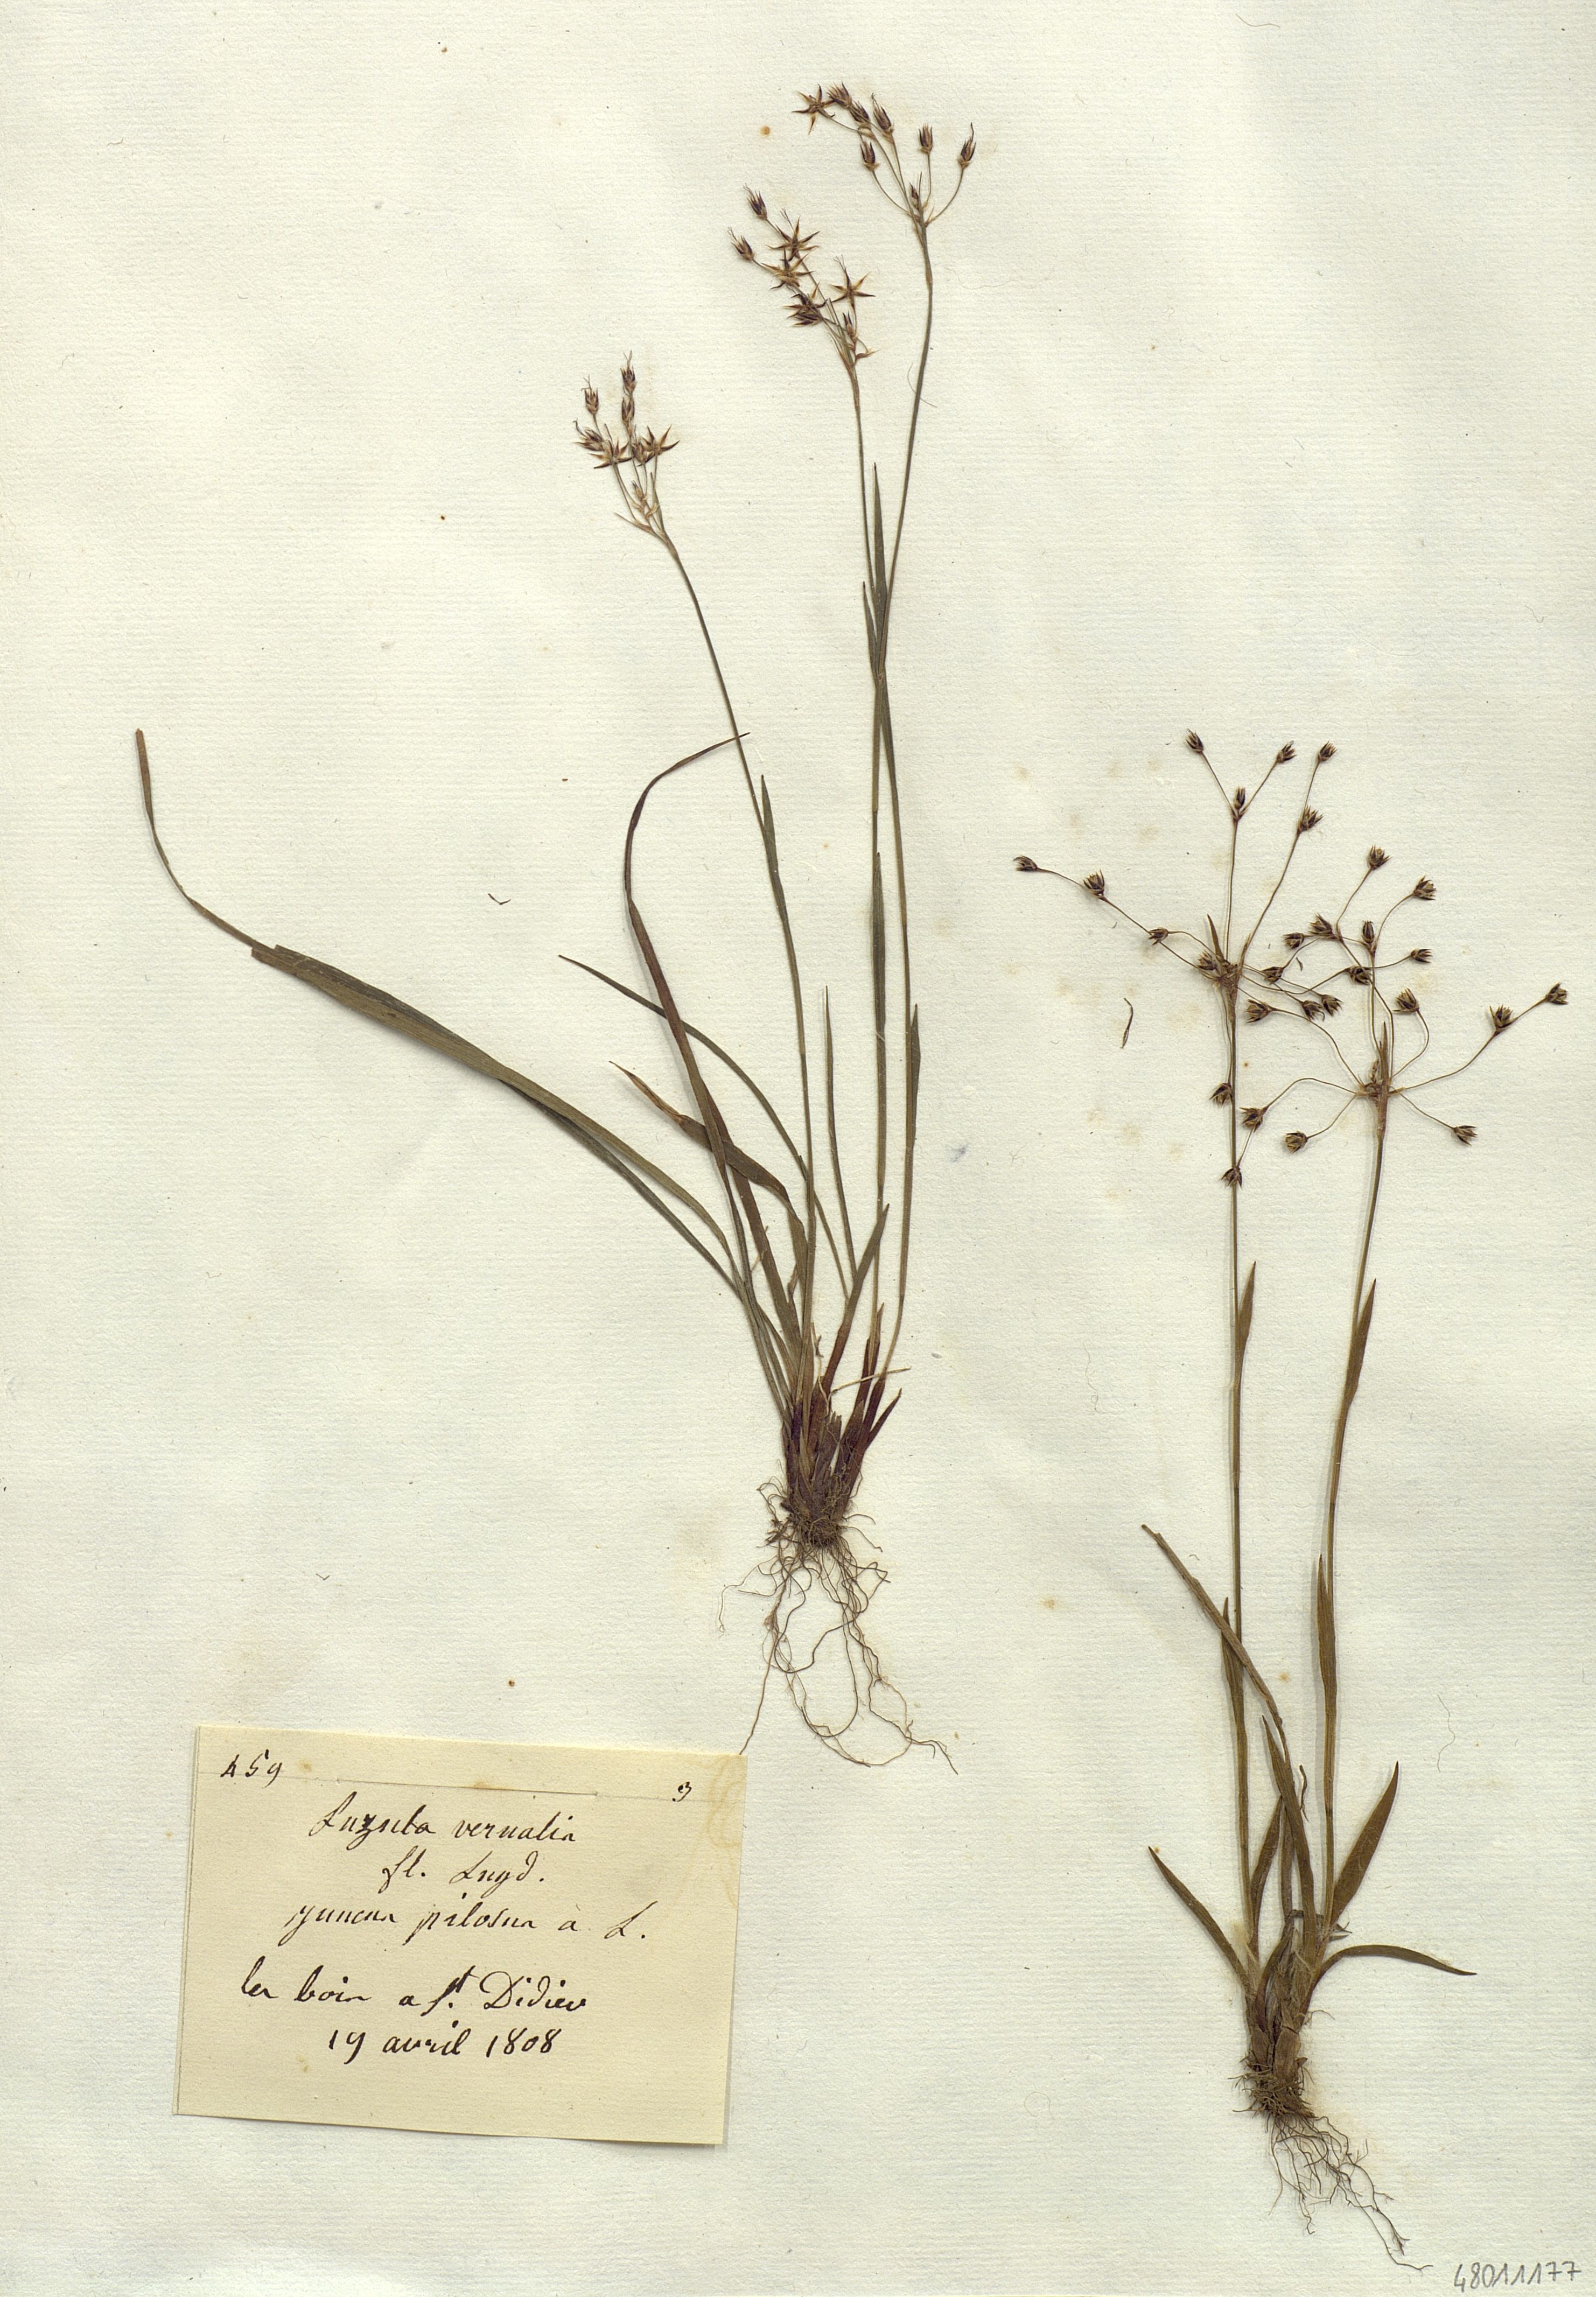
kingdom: Plantae
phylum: Tracheophyta
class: Liliopsida
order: Poales
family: Juncaceae
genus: Luzula
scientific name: Luzula vernalis
